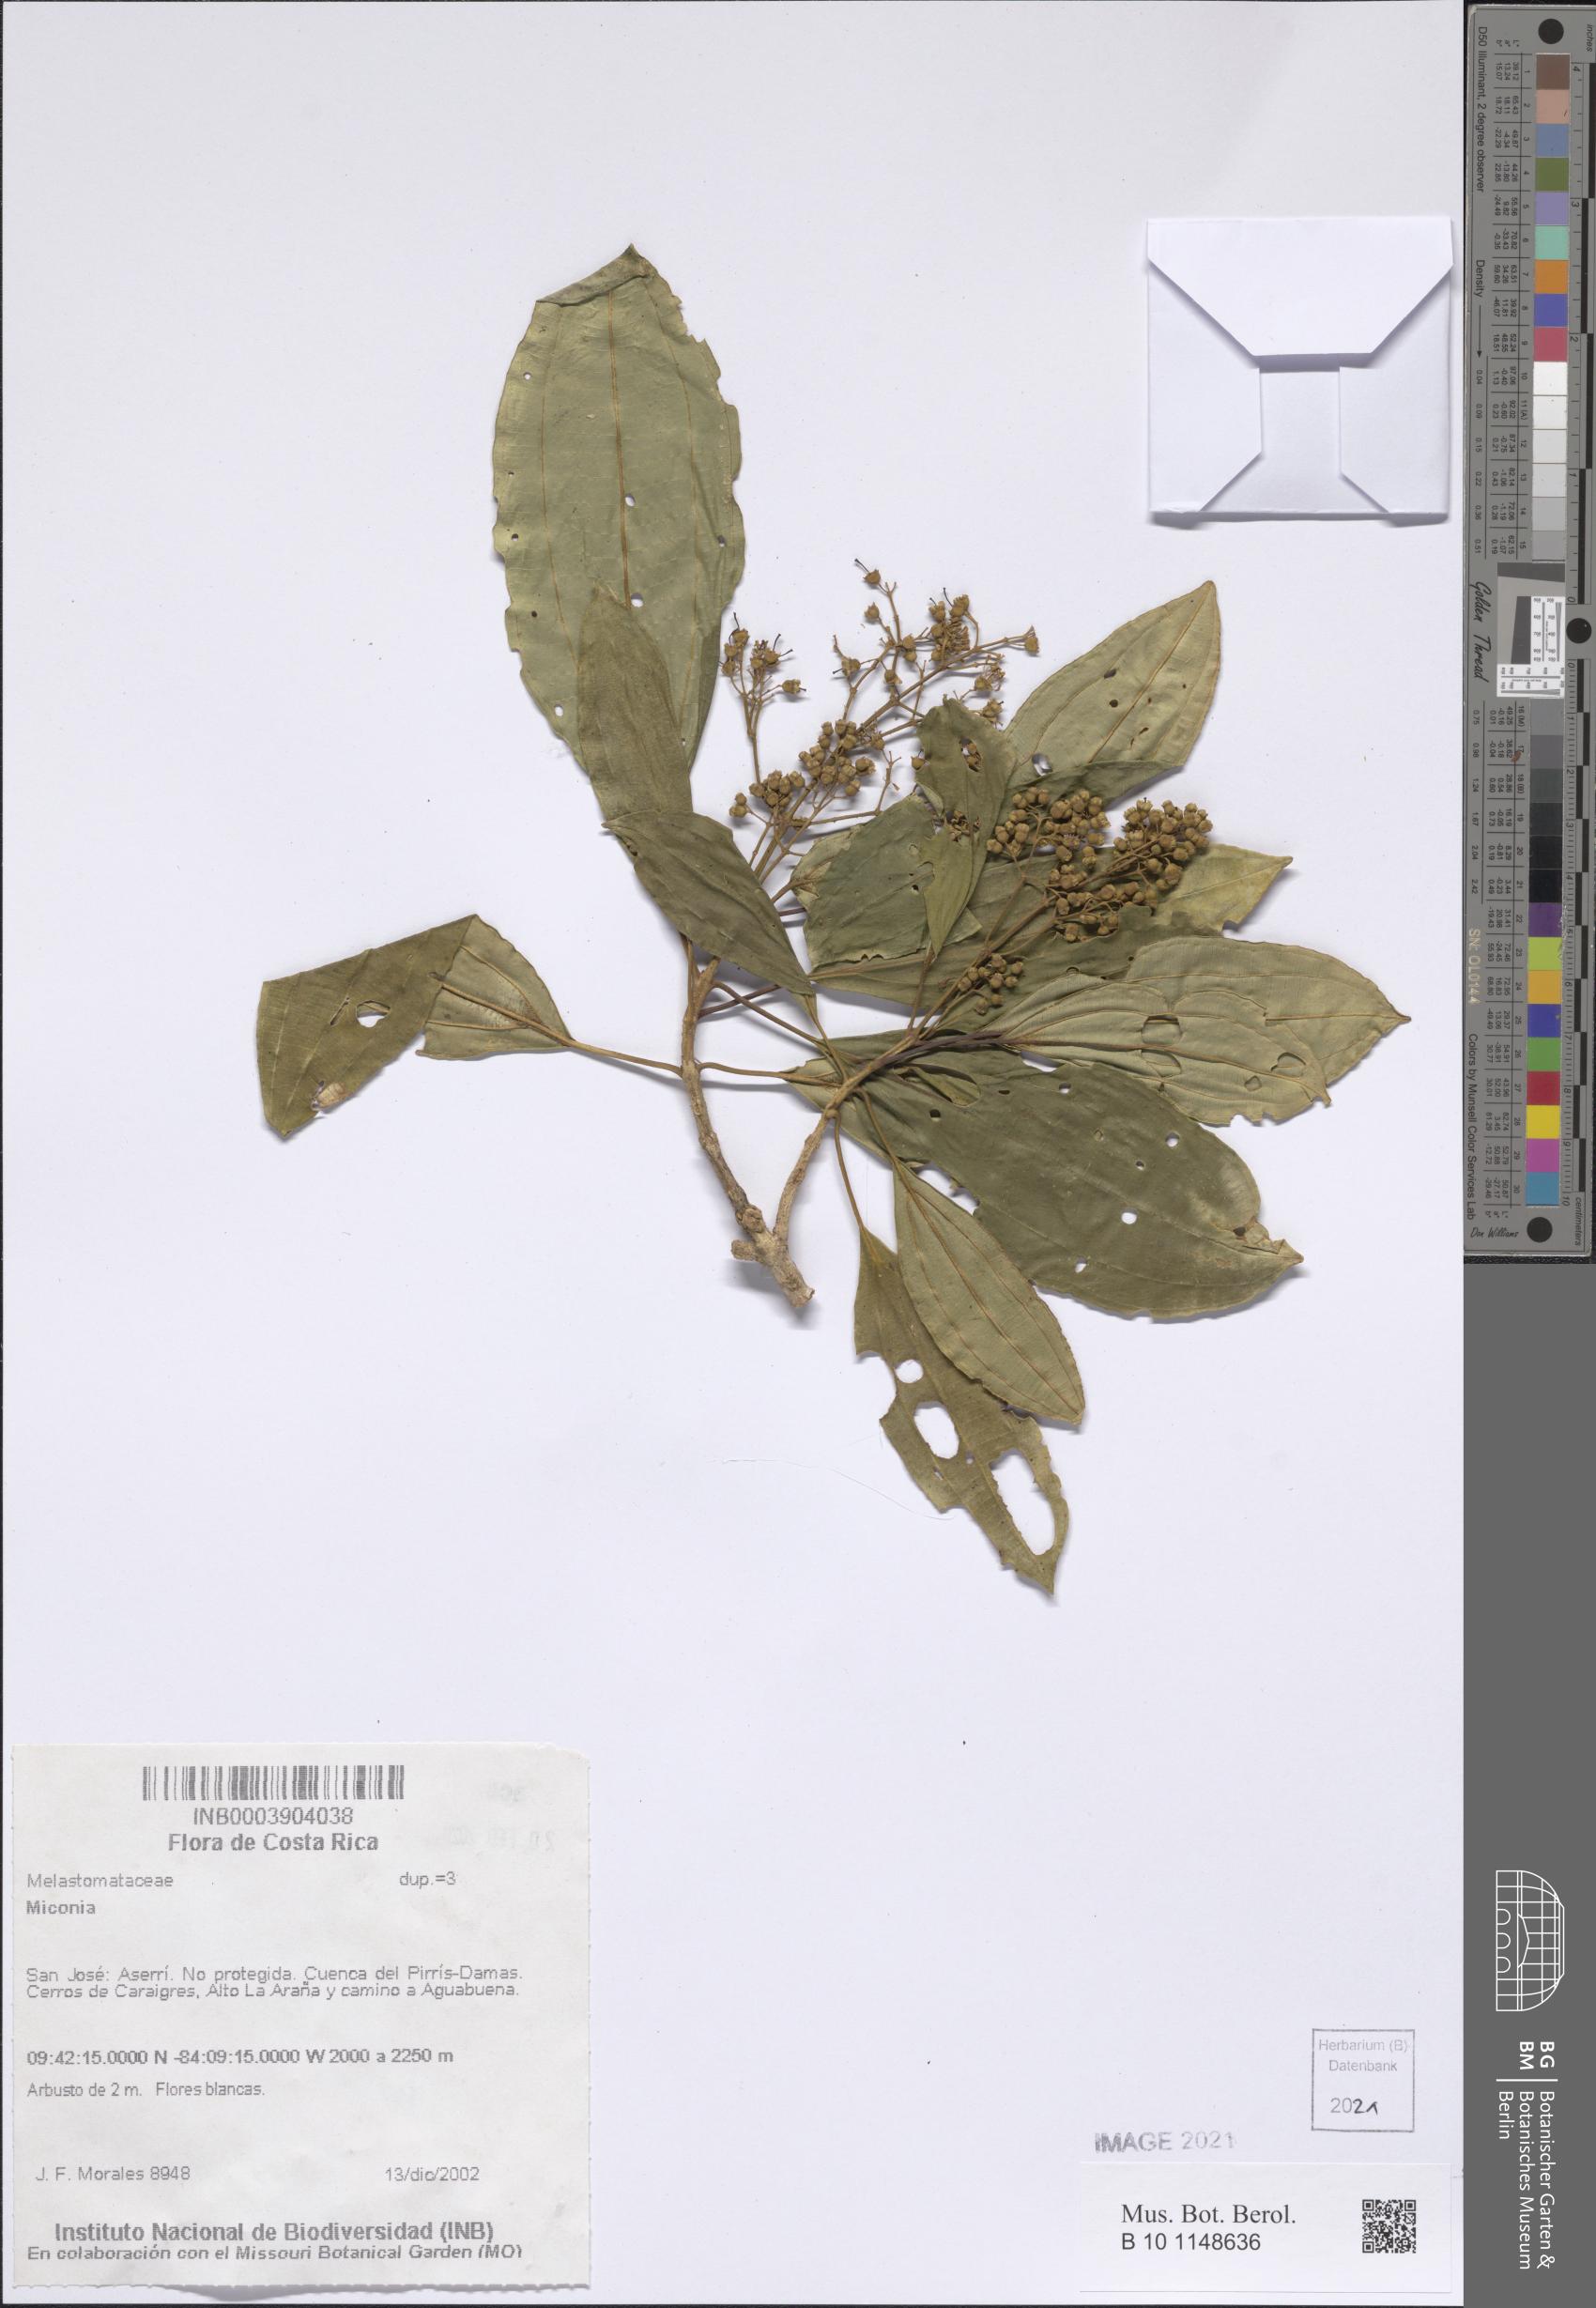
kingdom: Plantae
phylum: Tracheophyta
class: Magnoliopsida
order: Myrtales
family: Melastomataceae
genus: Miconia
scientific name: Miconia
